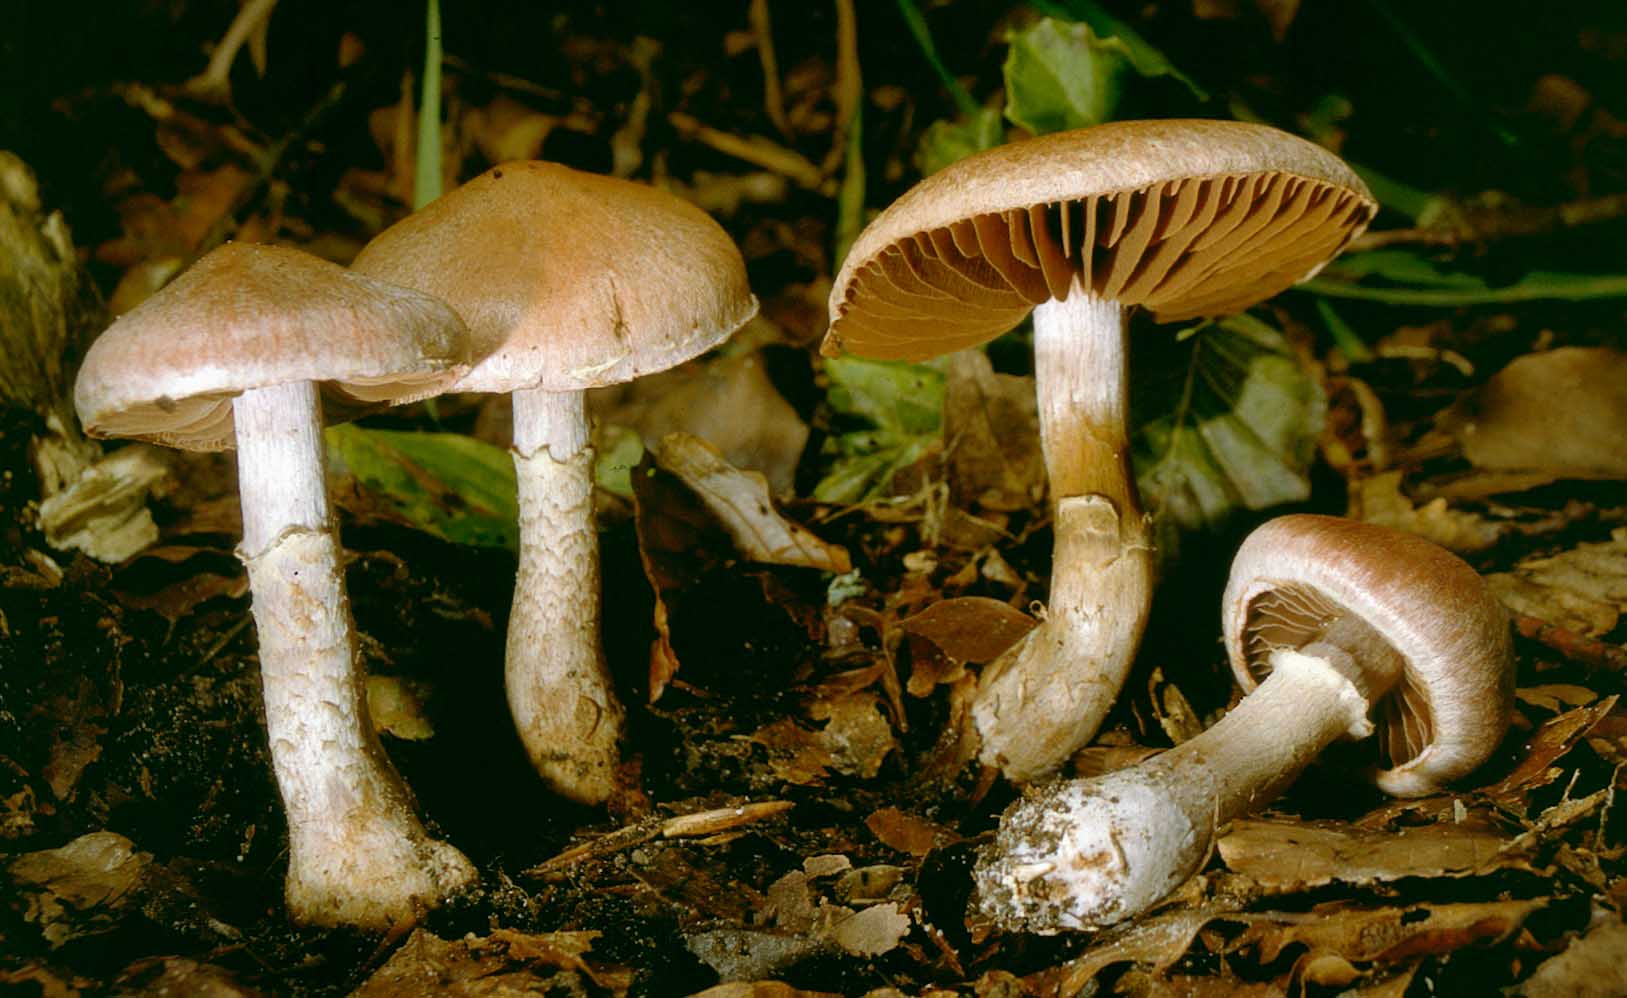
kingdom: Fungi
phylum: Basidiomycota
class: Agaricomycetes
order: Agaricales
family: Cortinariaceae
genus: Cortinarius
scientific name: Cortinarius torvus
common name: champignonagtig slørhat
